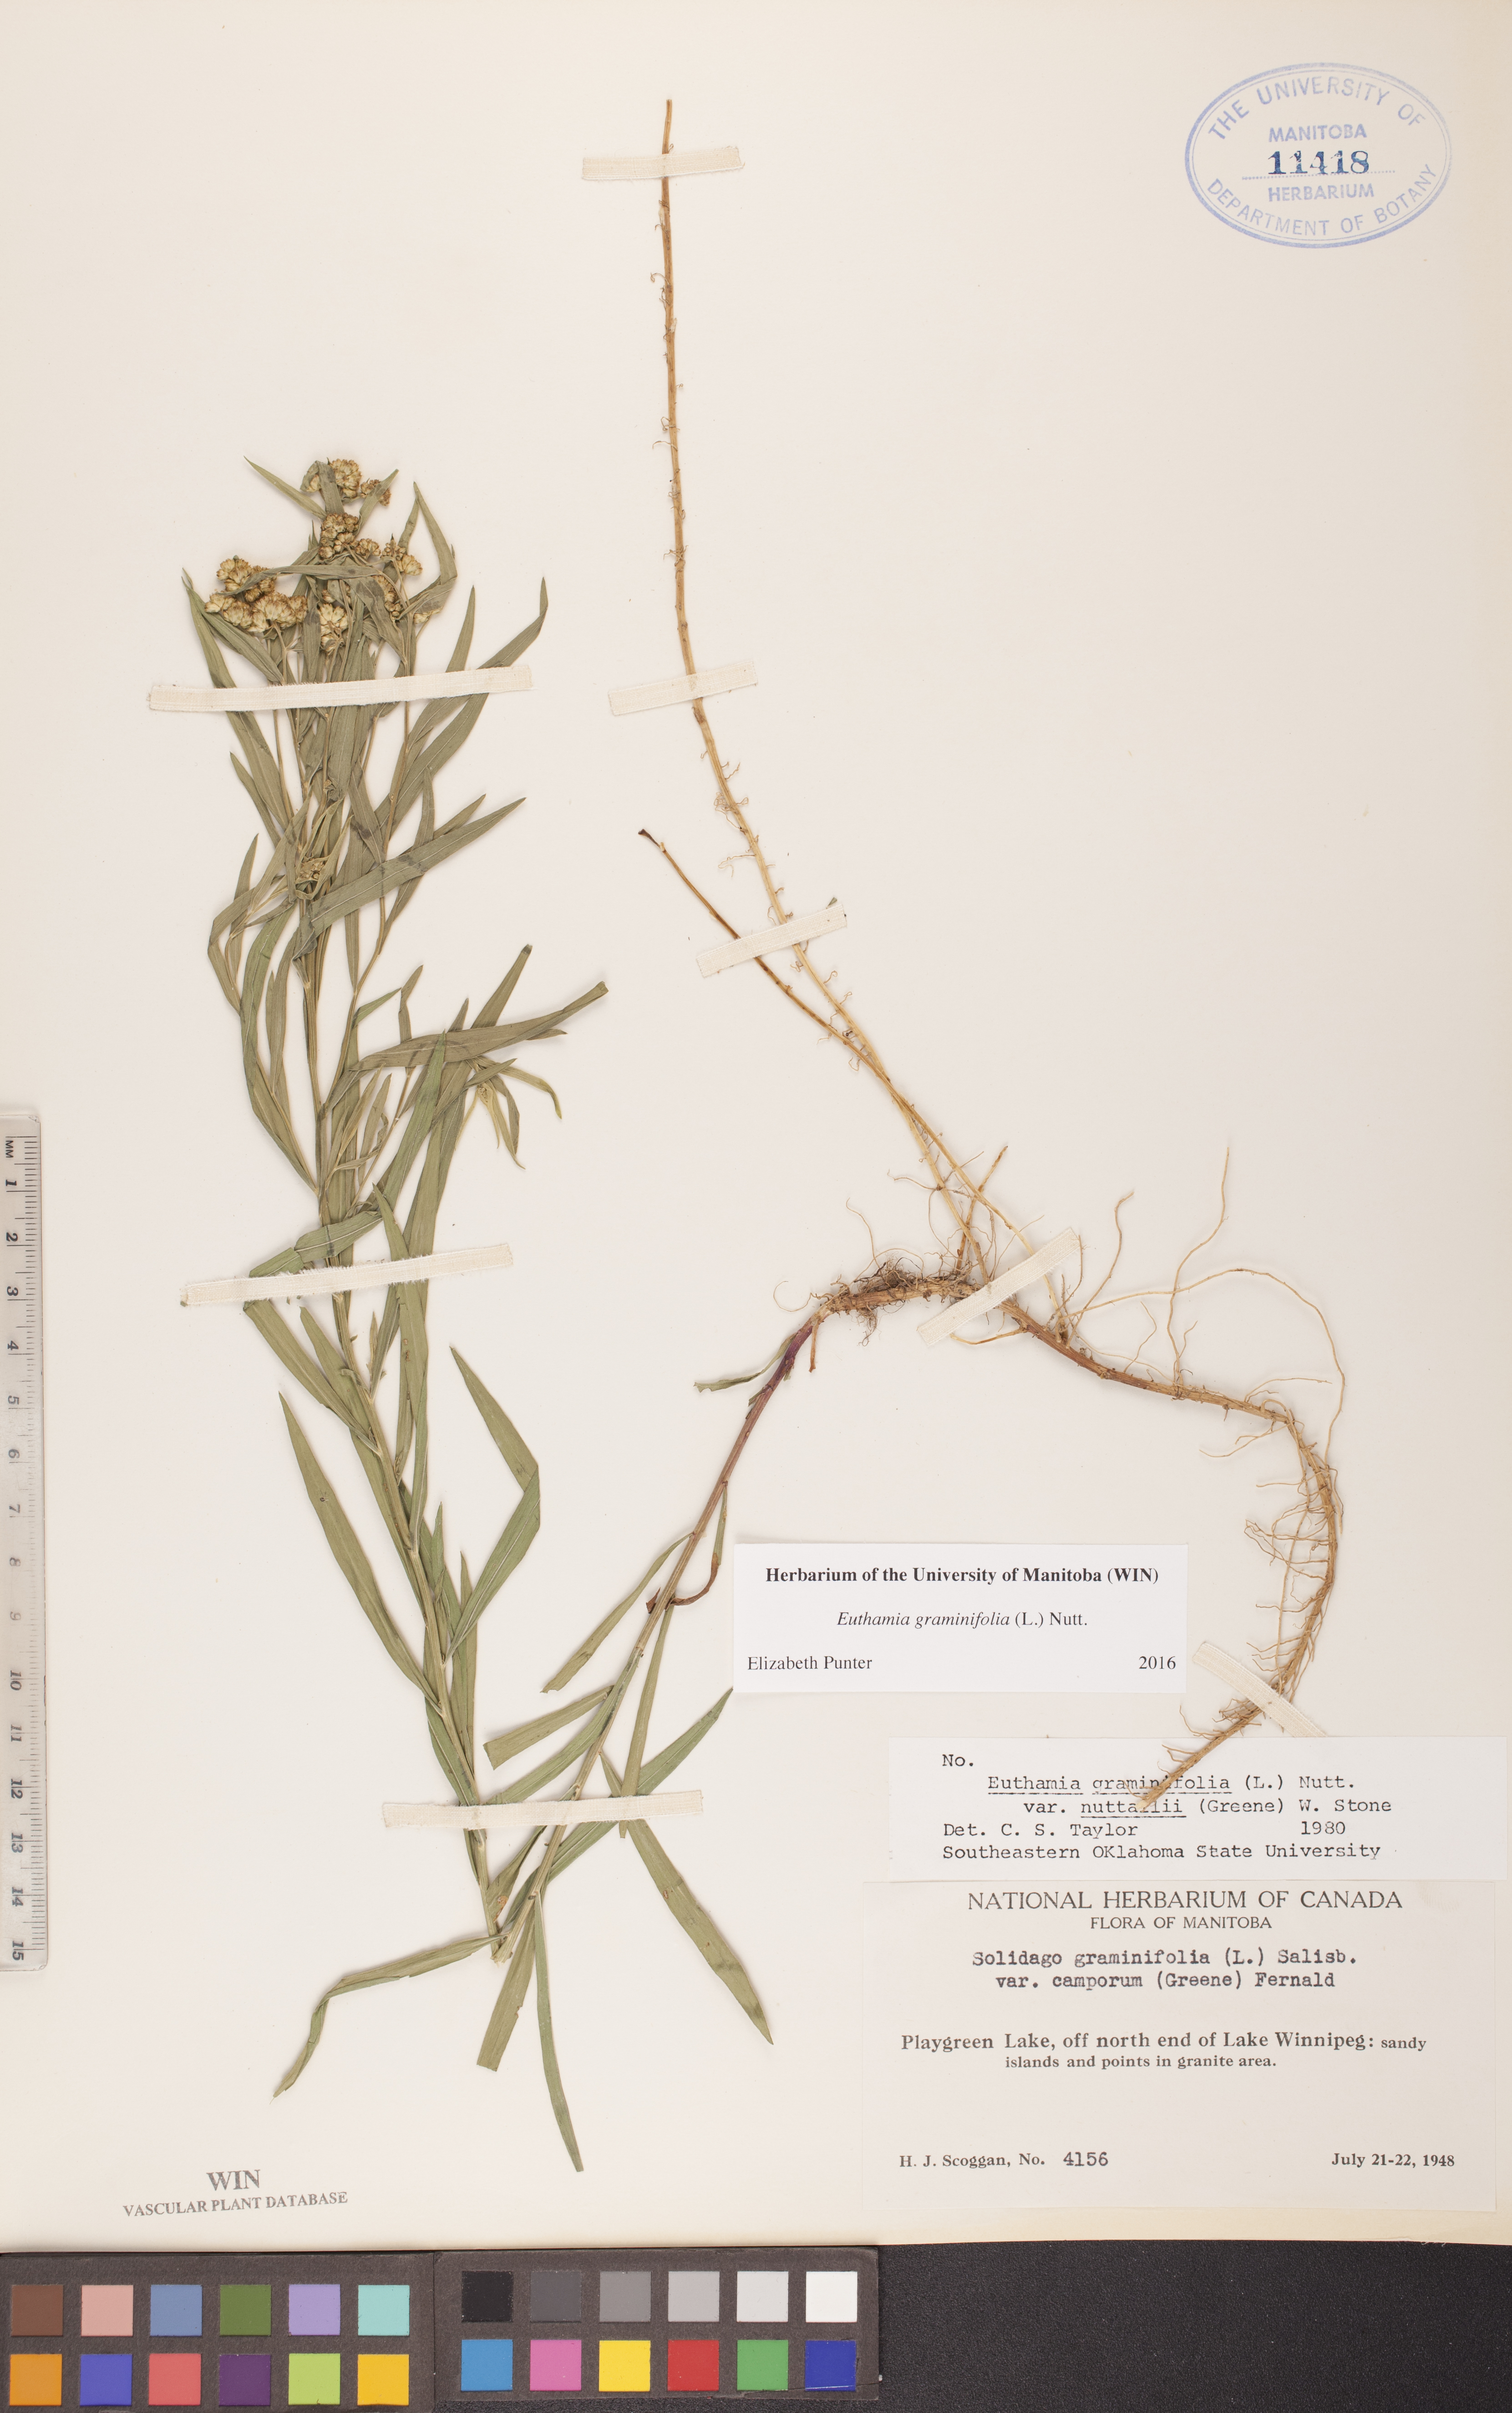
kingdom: Plantae
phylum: Tracheophyta
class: Magnoliopsida
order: Asterales
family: Asteraceae
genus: Euthamia
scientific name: Euthamia graminifolia
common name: Common goldentop
